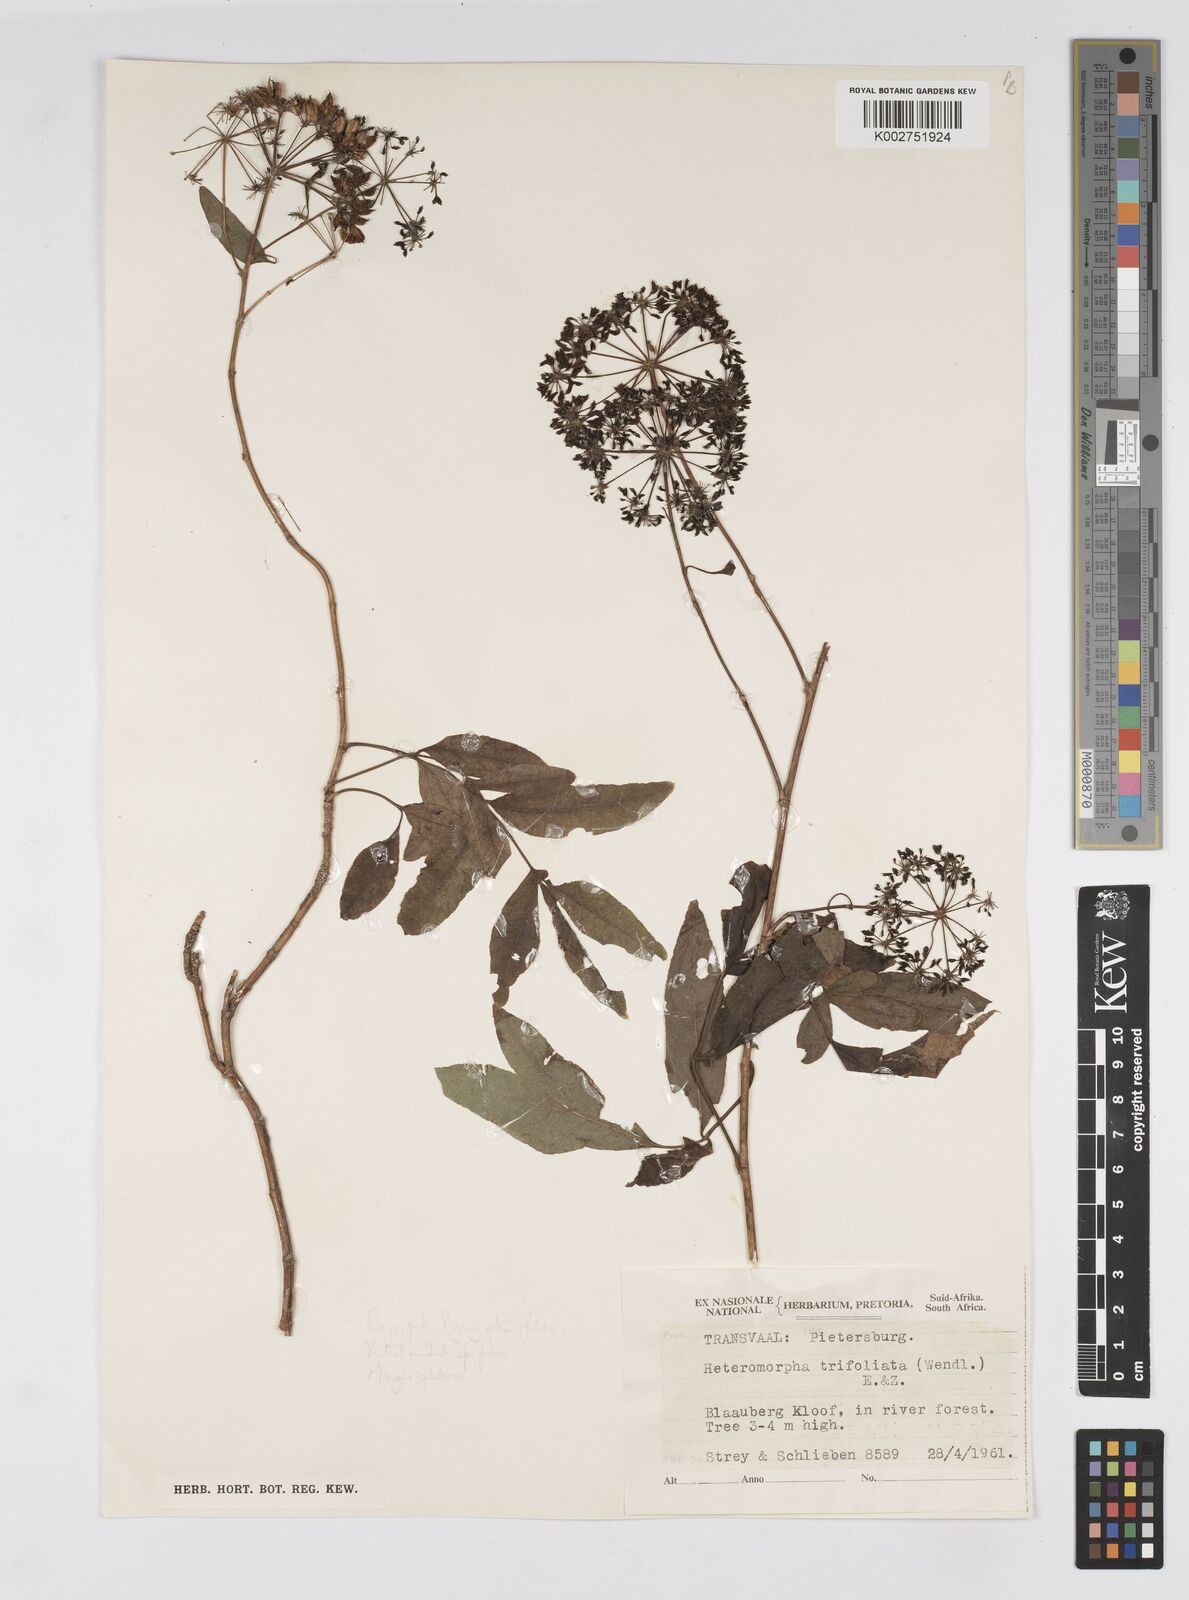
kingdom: Plantae
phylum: Tracheophyta
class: Magnoliopsida
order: Apiales
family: Apiaceae
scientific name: Apiaceae
